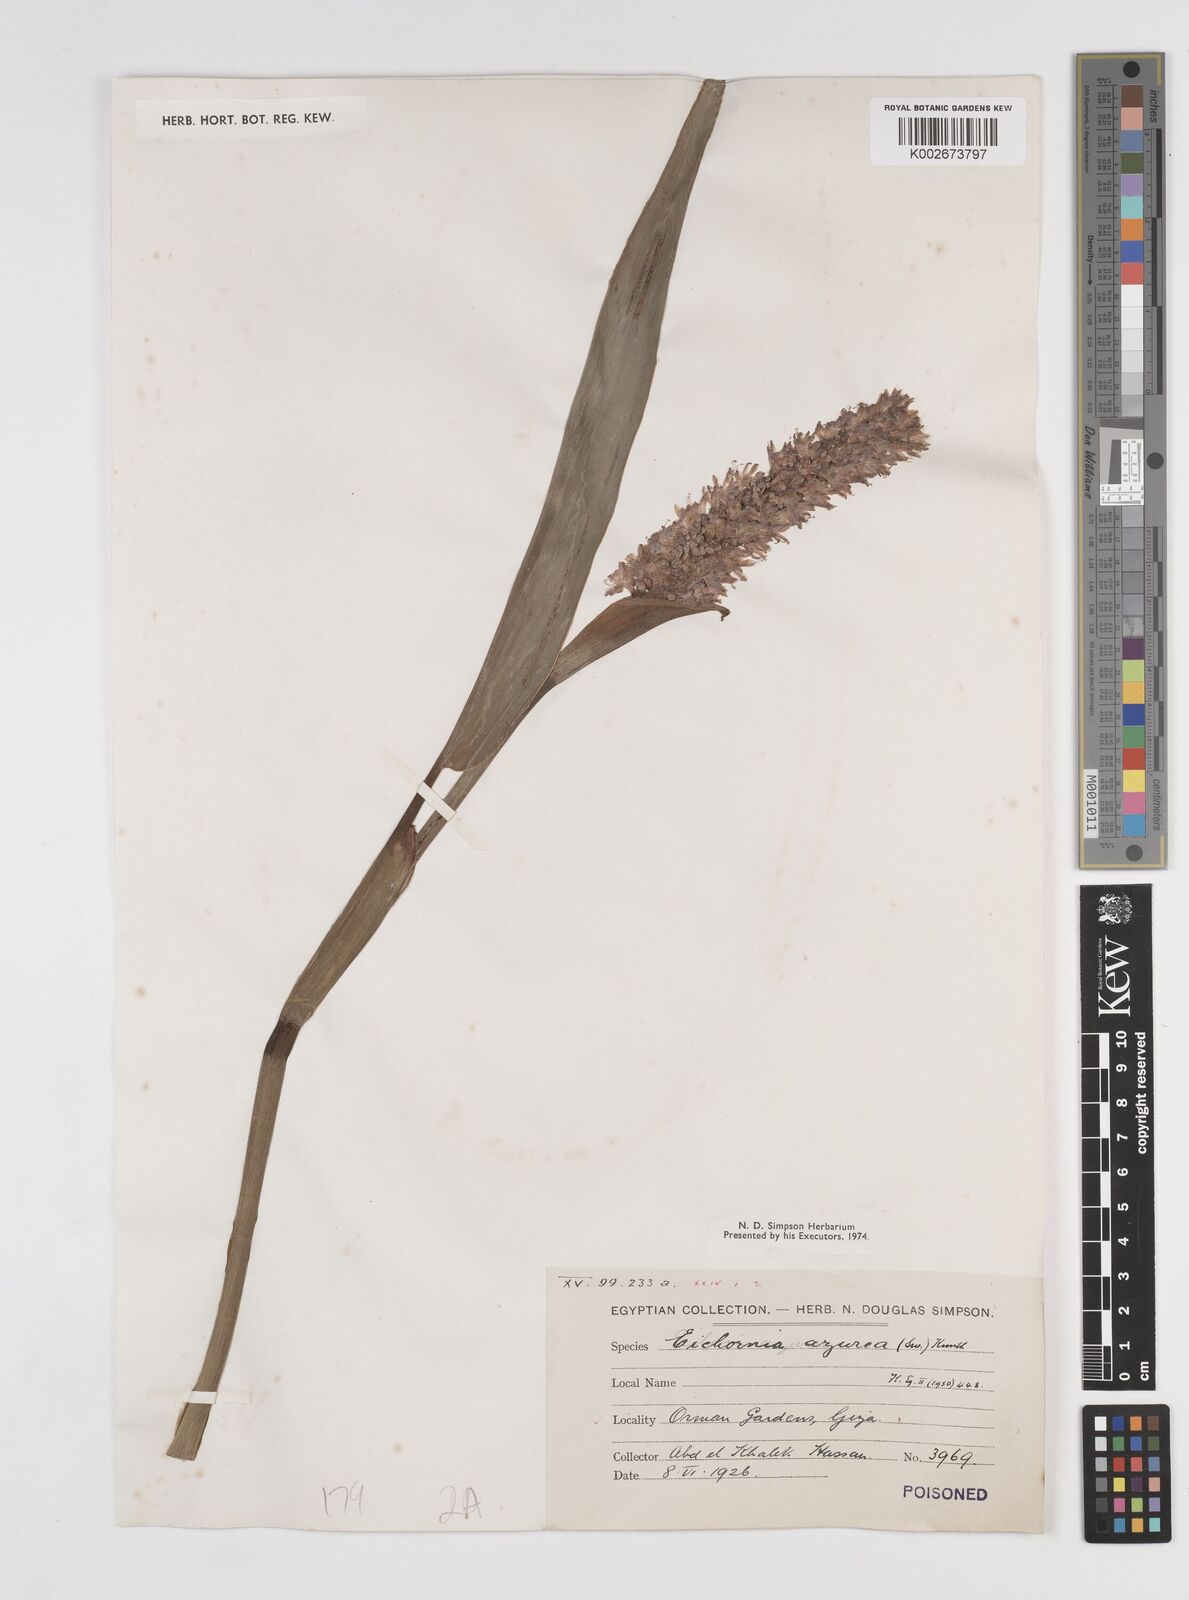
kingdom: Plantae
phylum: Tracheophyta
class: Liliopsida
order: Commelinales
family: Pontederiaceae
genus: Pontederia
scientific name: Pontederia azurea
